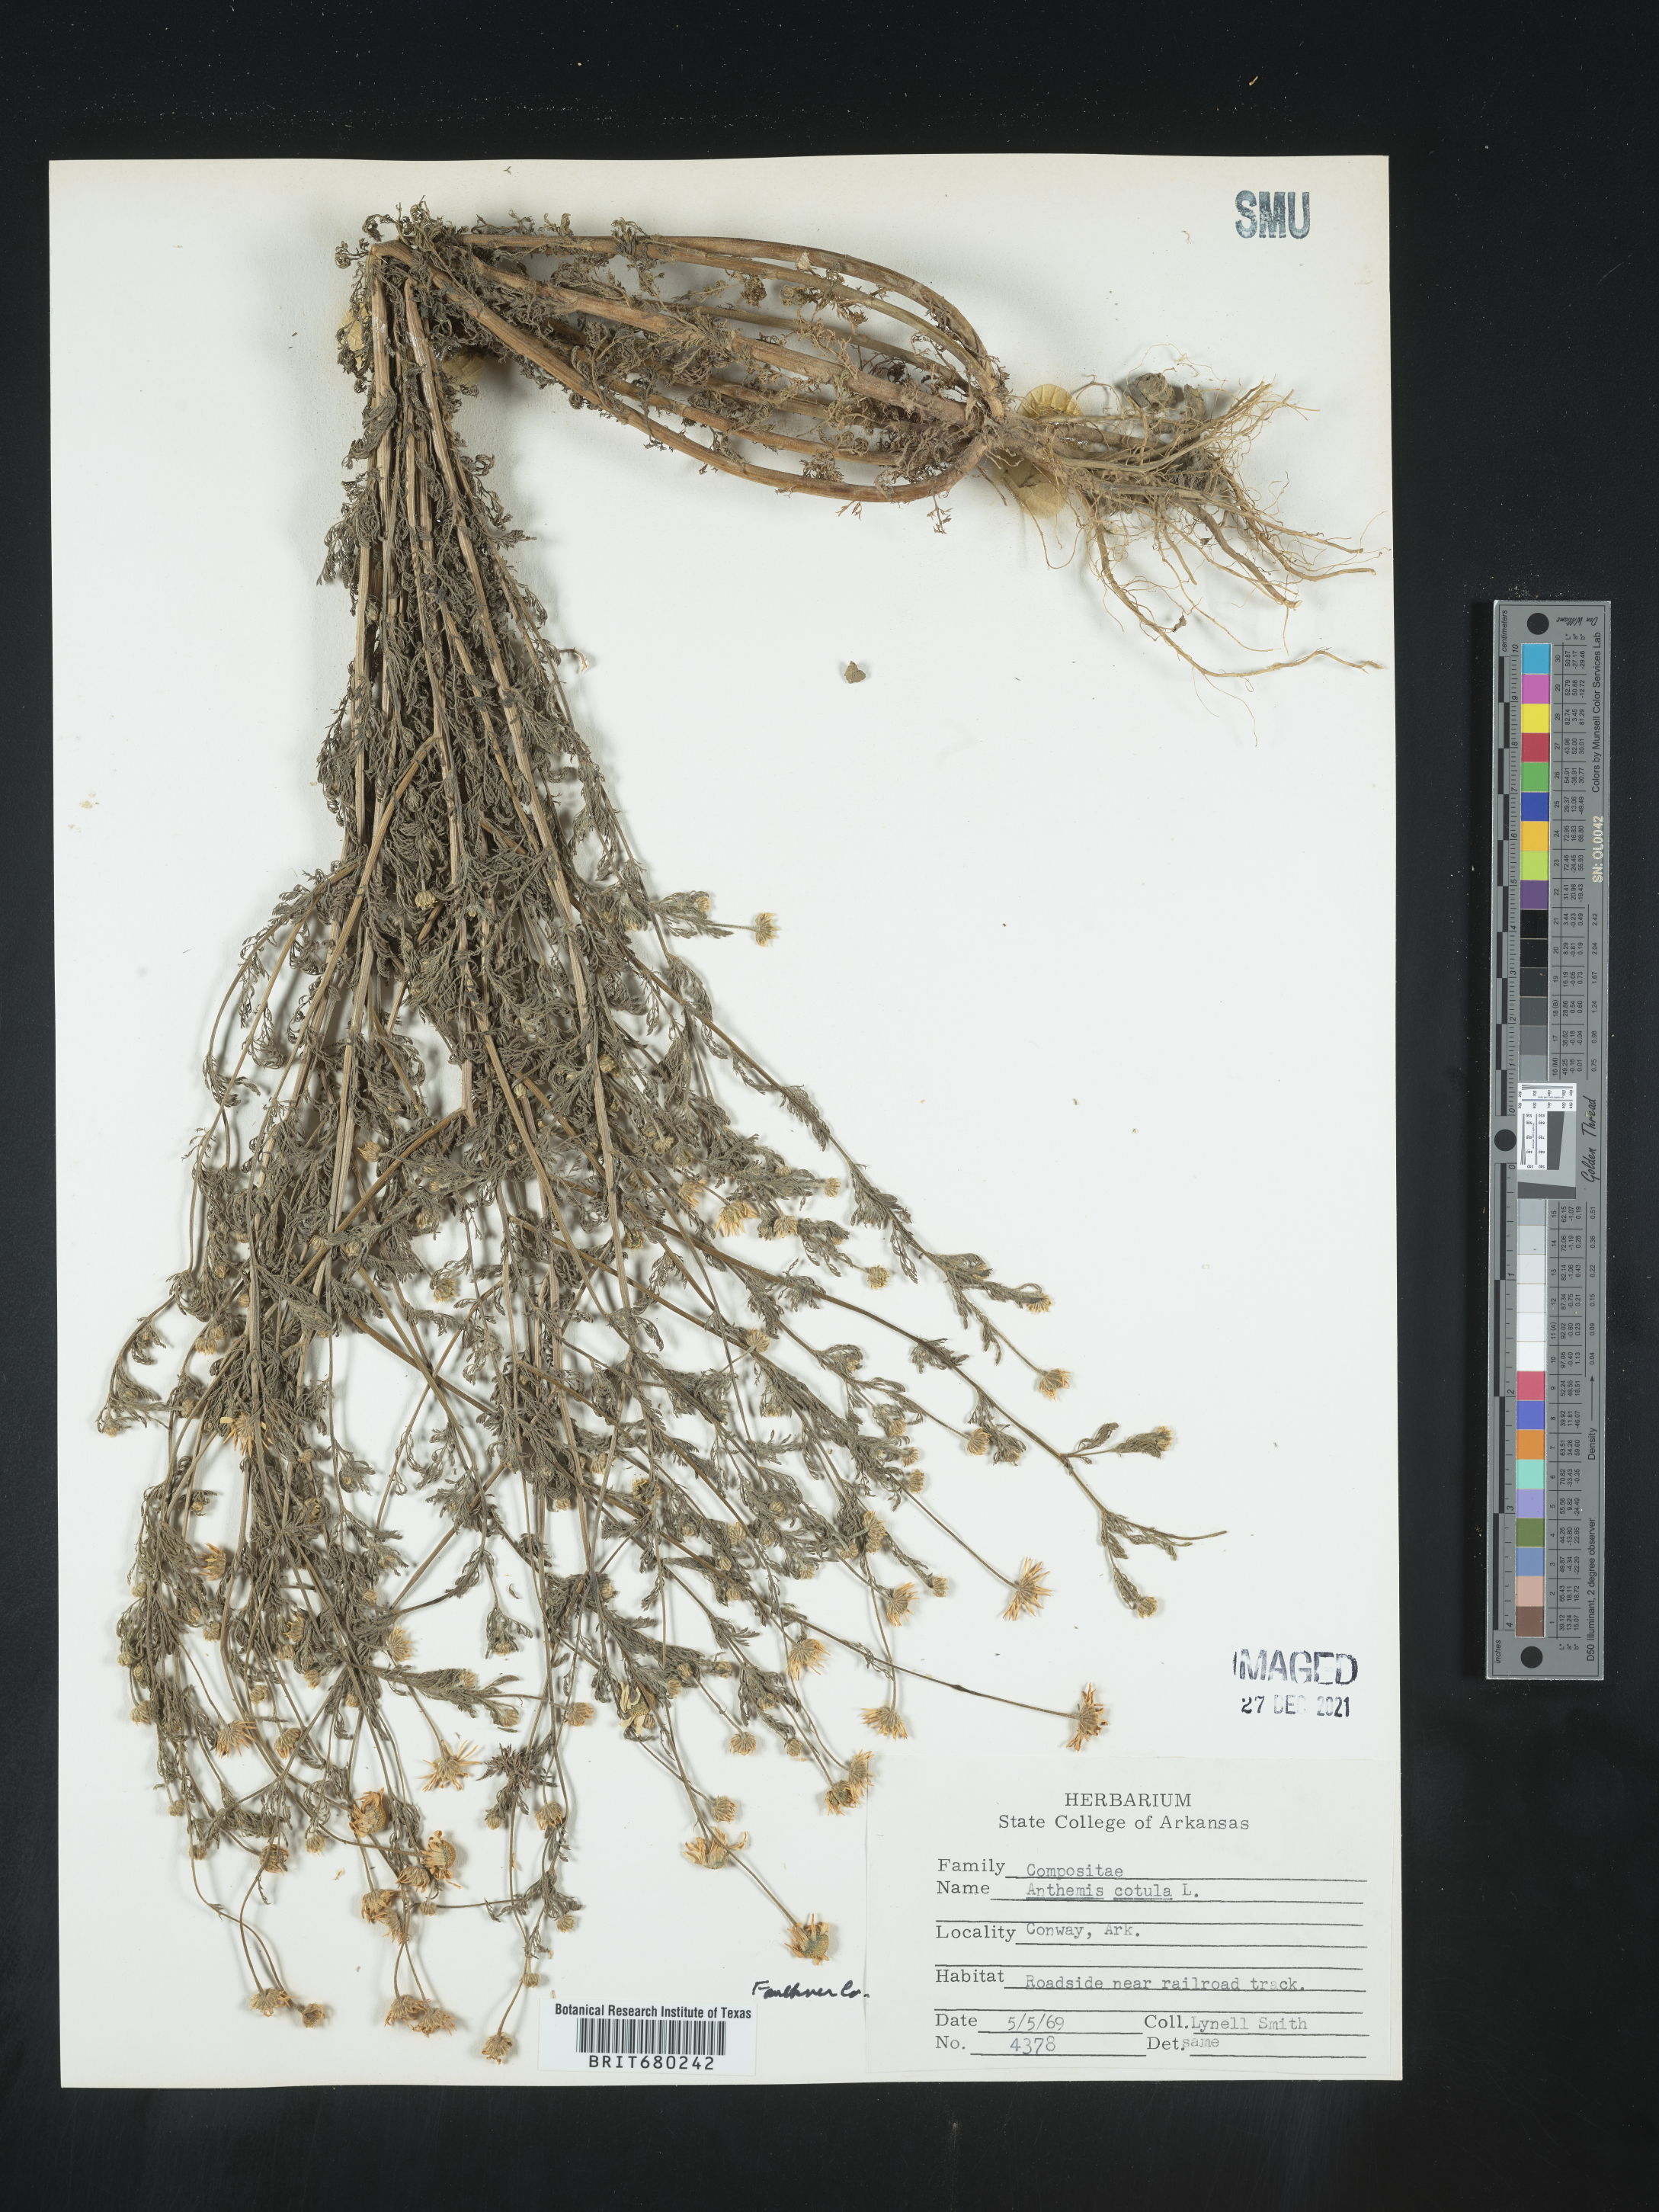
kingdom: Plantae
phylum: Tracheophyta
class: Magnoliopsida
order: Asterales
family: Asteraceae
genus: Anthemis
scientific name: Anthemis cotula
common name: Stinking chamomile
